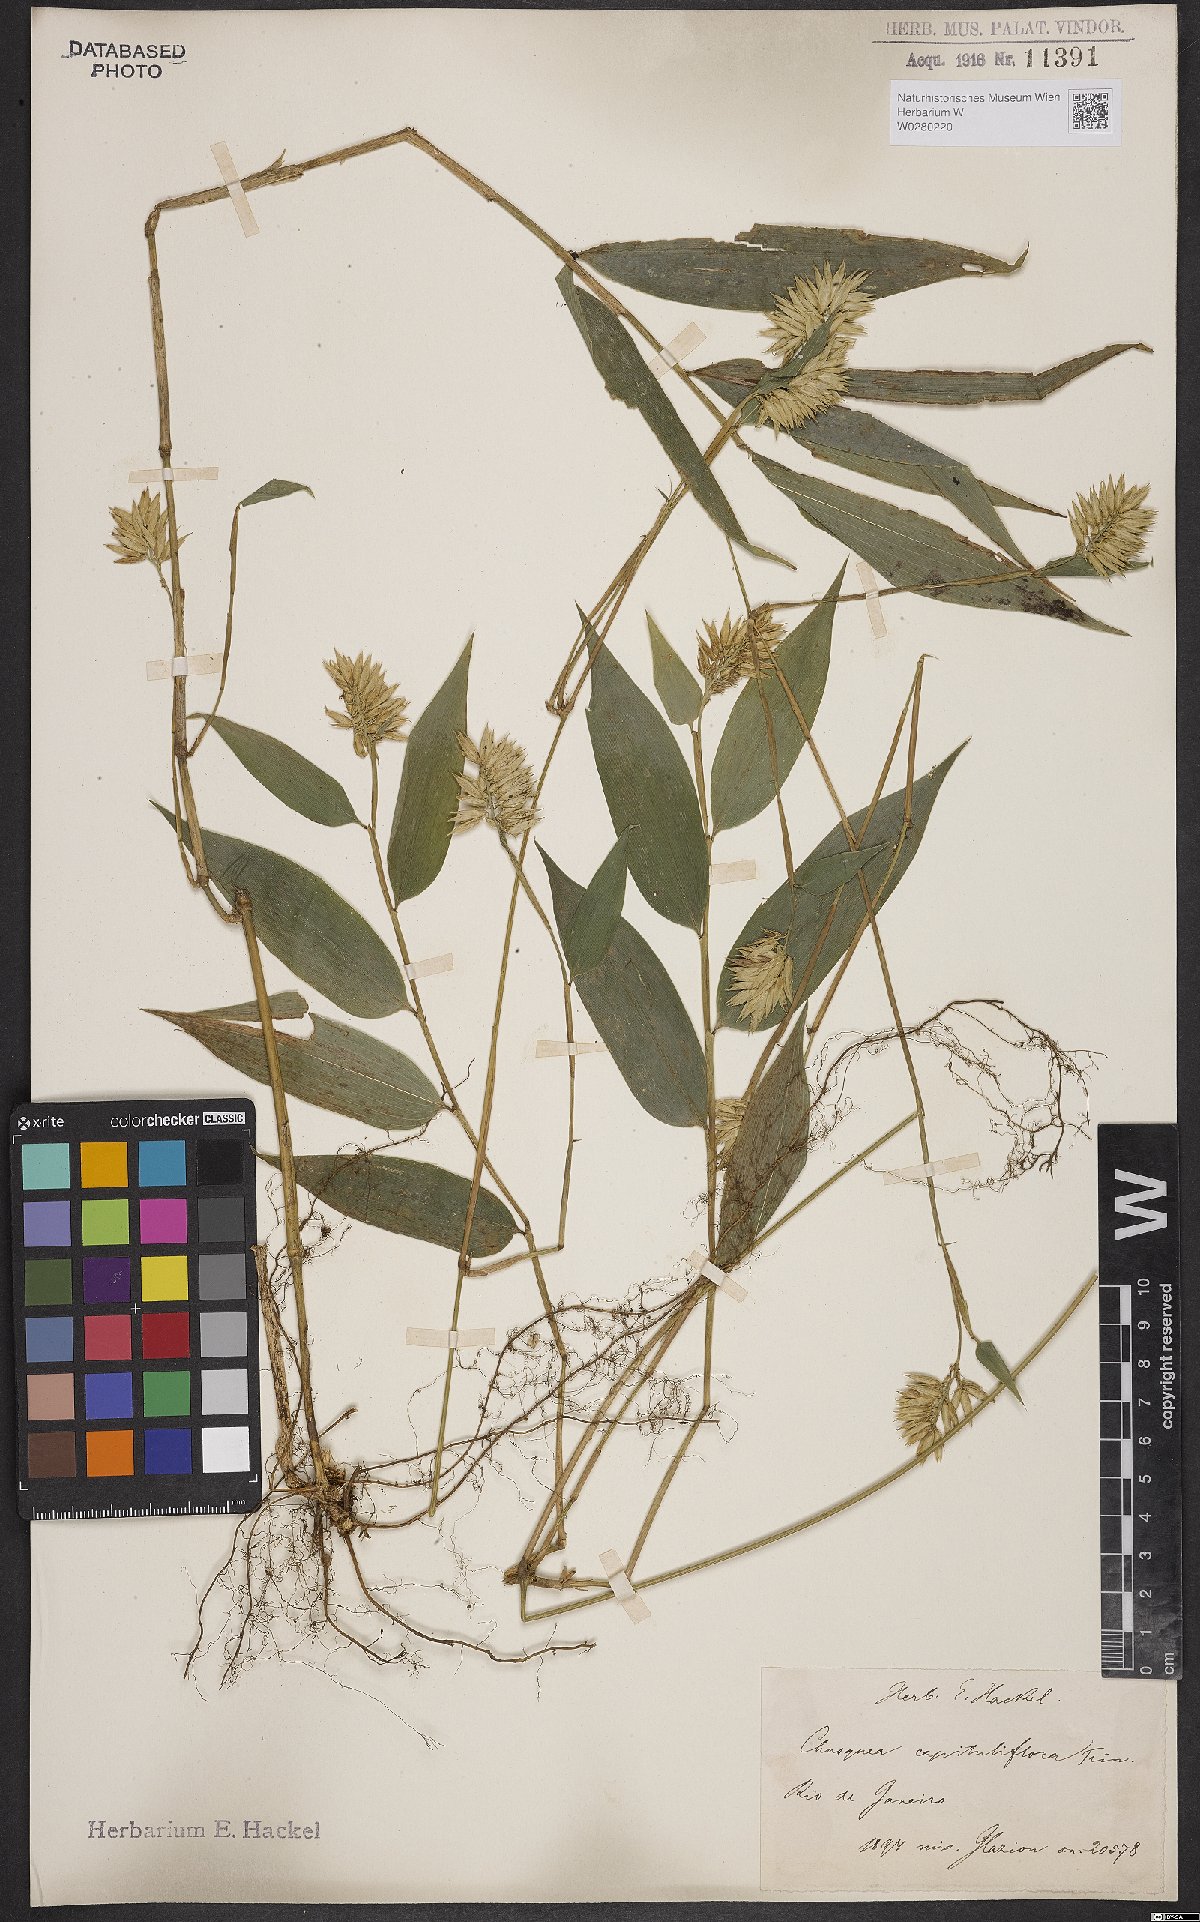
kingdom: Plantae
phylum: Tracheophyta
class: Liliopsida
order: Poales
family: Poaceae
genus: Chusquea
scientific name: Chusquea capituliflora
